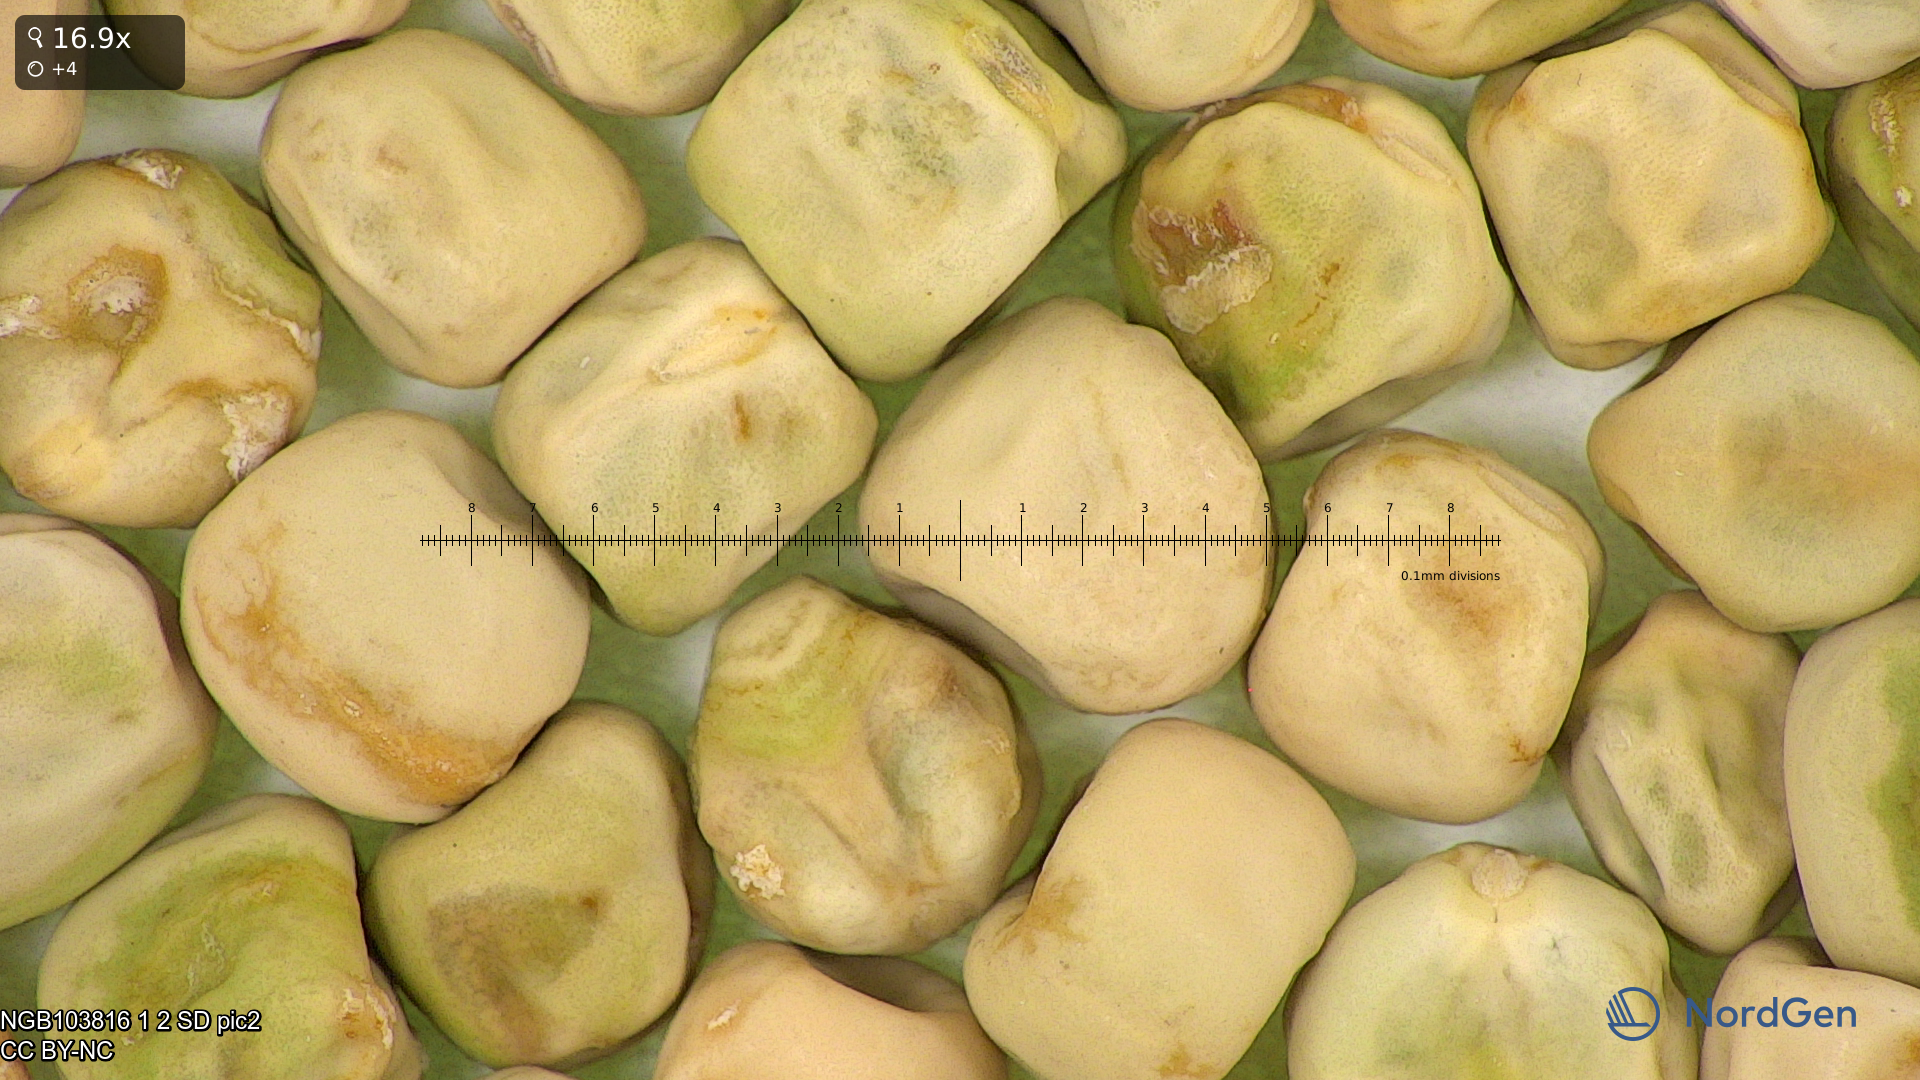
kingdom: Plantae
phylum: Tracheophyta
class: Magnoliopsida
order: Fabales
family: Fabaceae
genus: Lathyrus
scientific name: Lathyrus oleraceus
